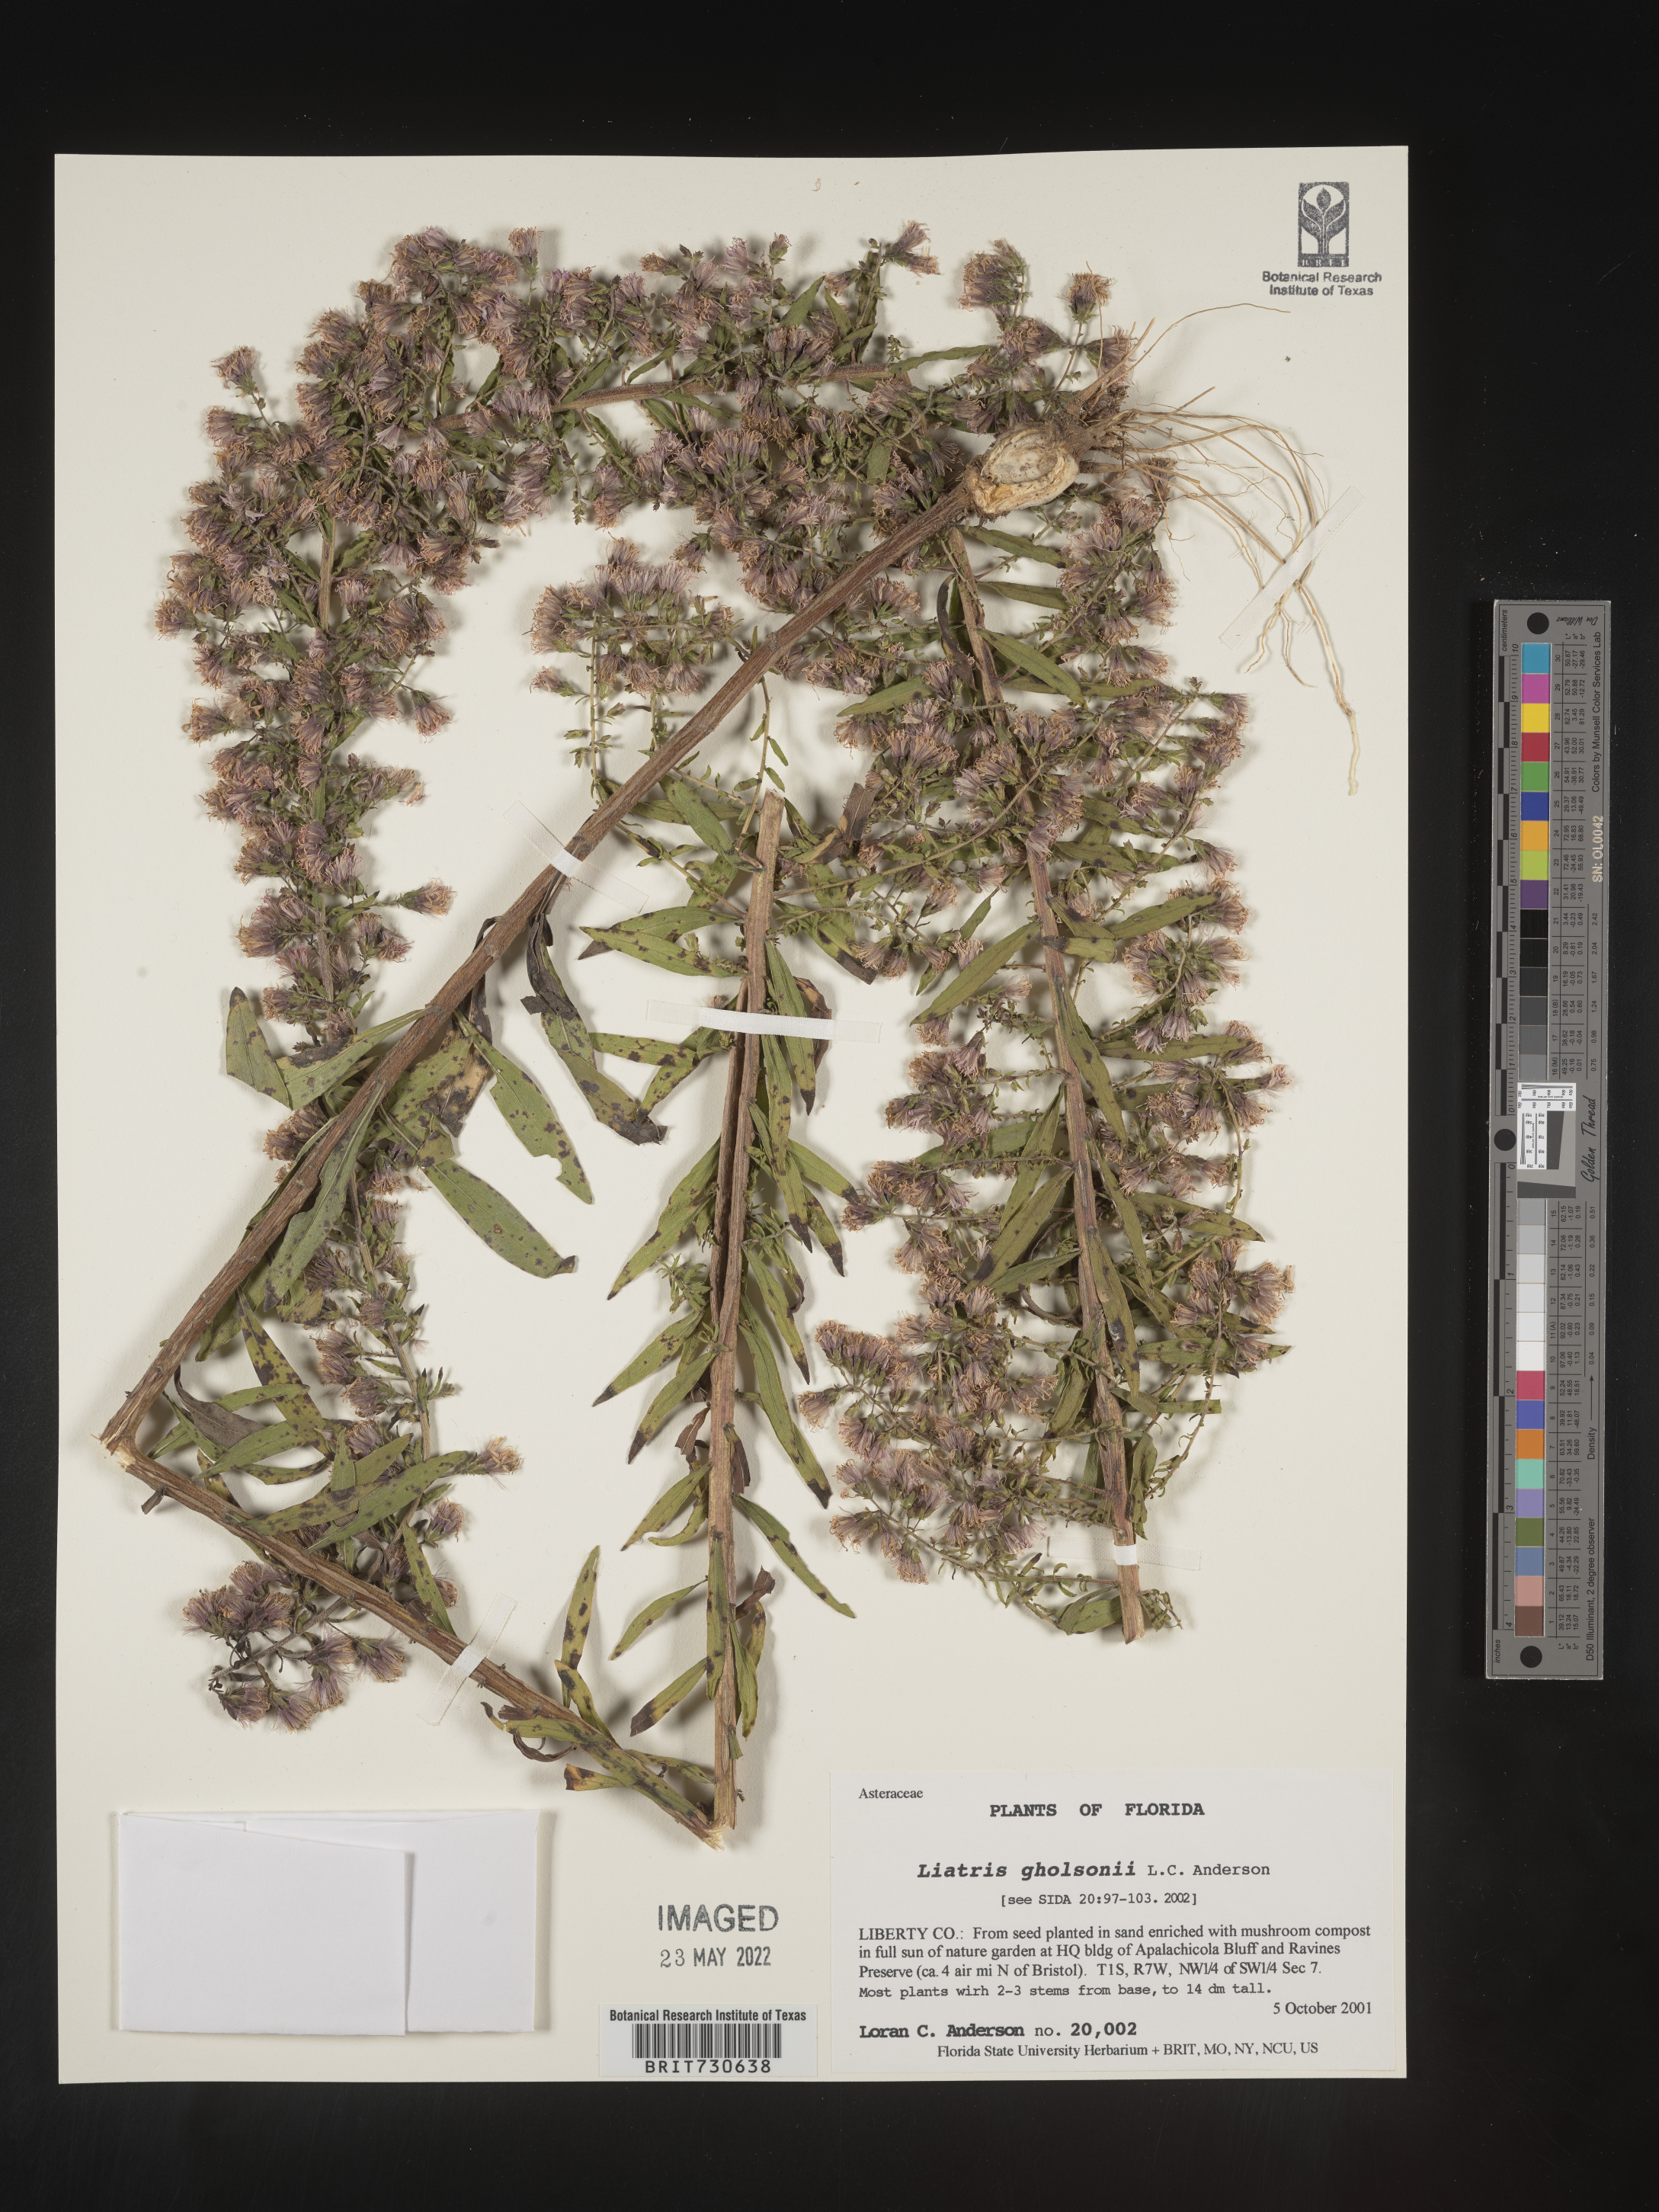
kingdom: Plantae
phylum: Tracheophyta
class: Magnoliopsida
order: Asterales
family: Asteraceae
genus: Liatris
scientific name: Liatris gracilis
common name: Slender gayfeather
